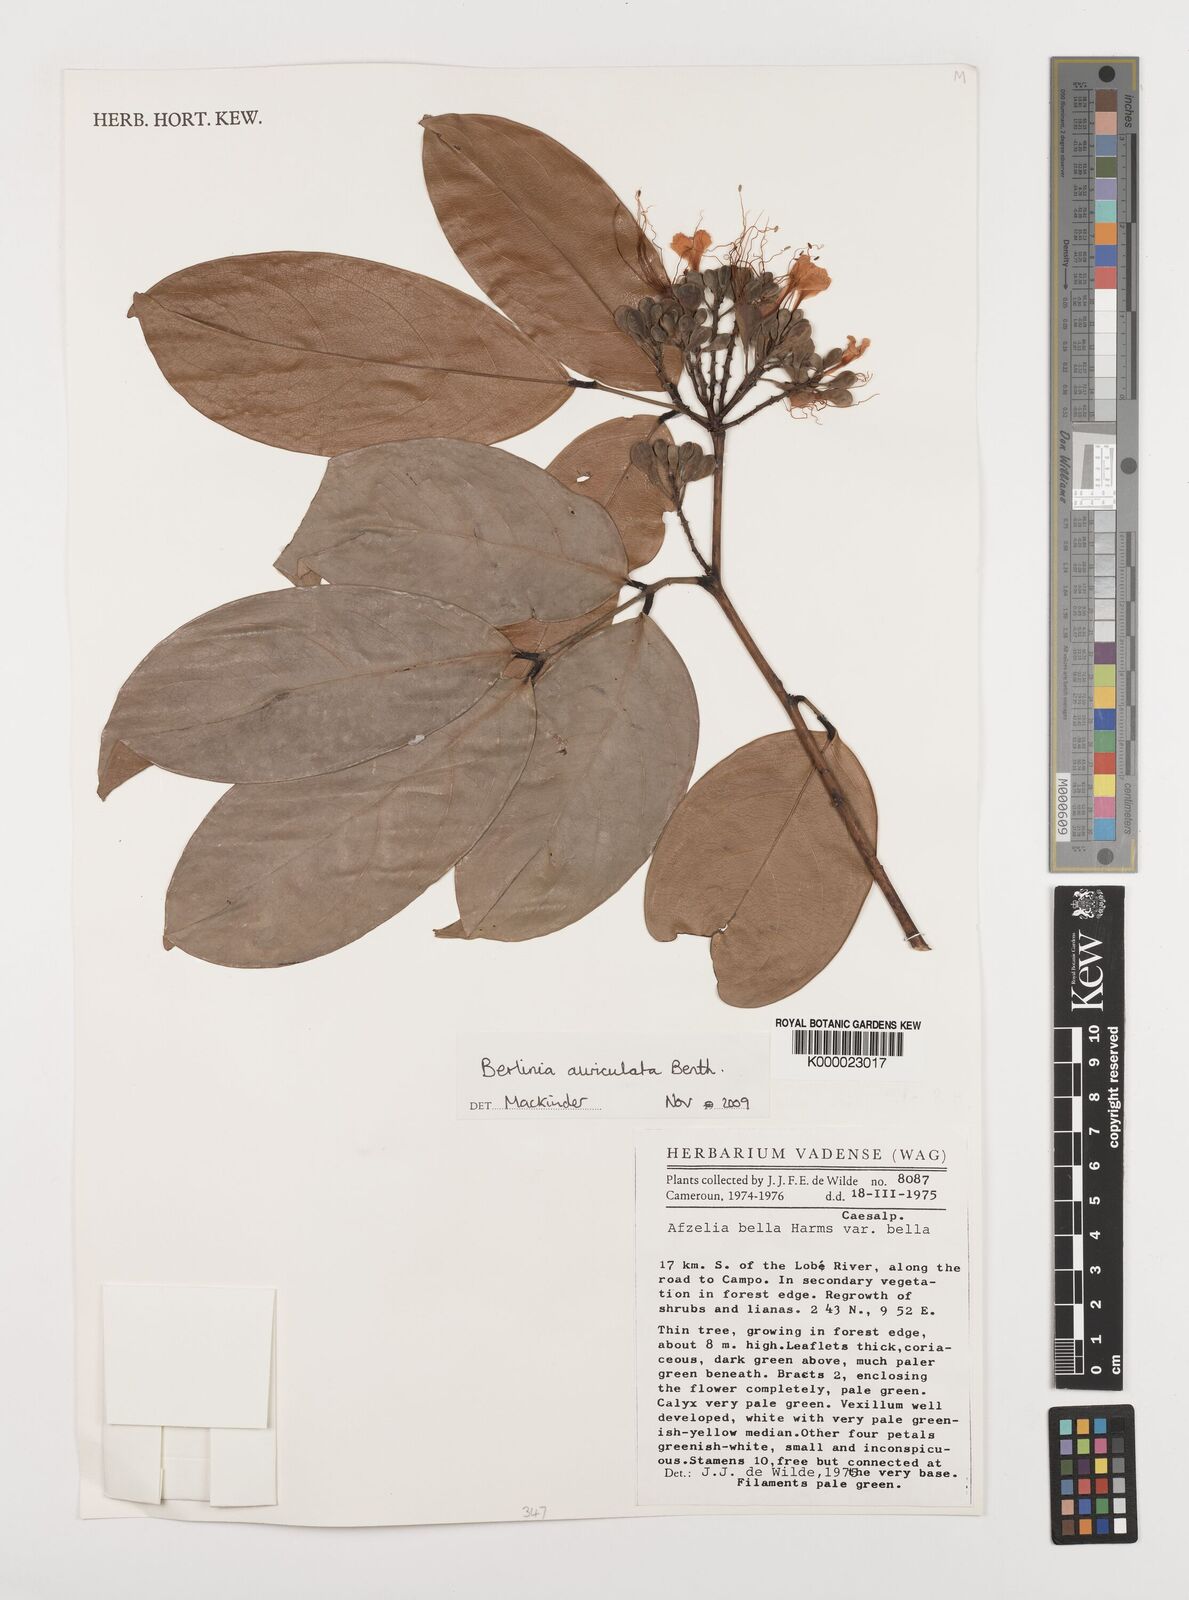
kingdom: Plantae
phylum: Tracheophyta
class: Magnoliopsida
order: Fabales
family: Fabaceae
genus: Berlinia
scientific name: Berlinia auriculata
